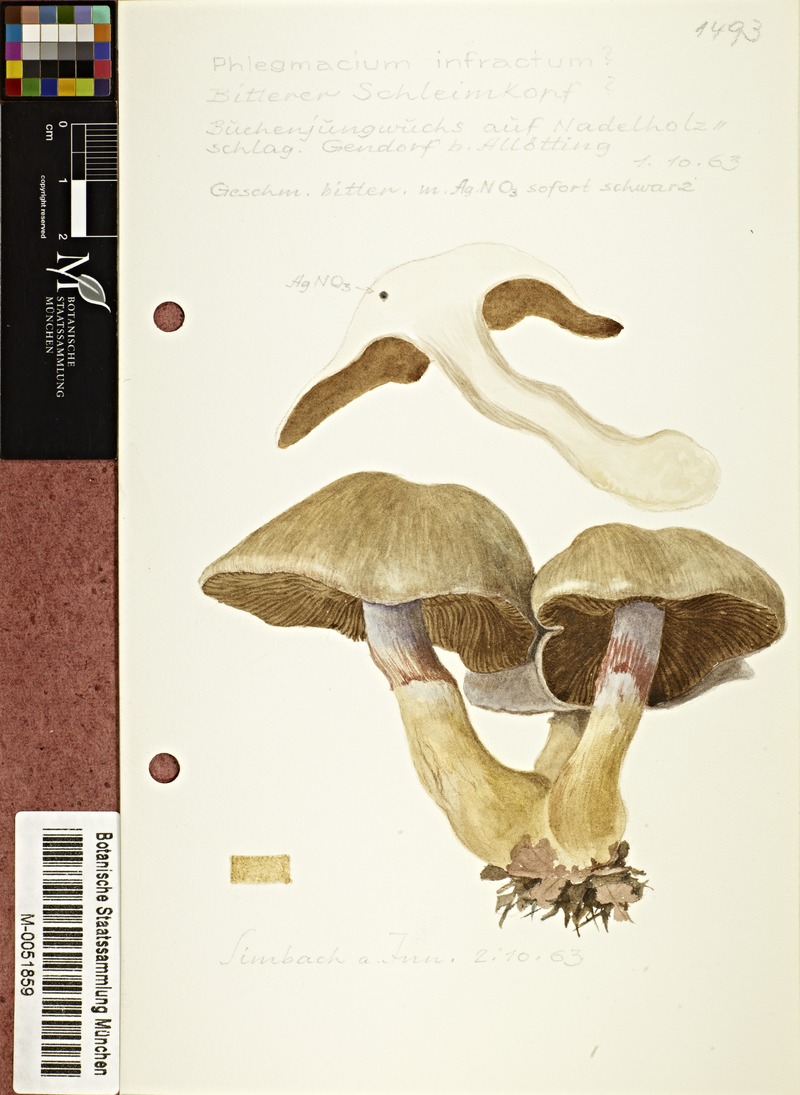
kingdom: Fungi
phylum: Basidiomycota
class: Agaricomycetes
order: Agaricales
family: Cortinariaceae
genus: Cortinarius
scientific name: Cortinarius infractus
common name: Bitter webcap
